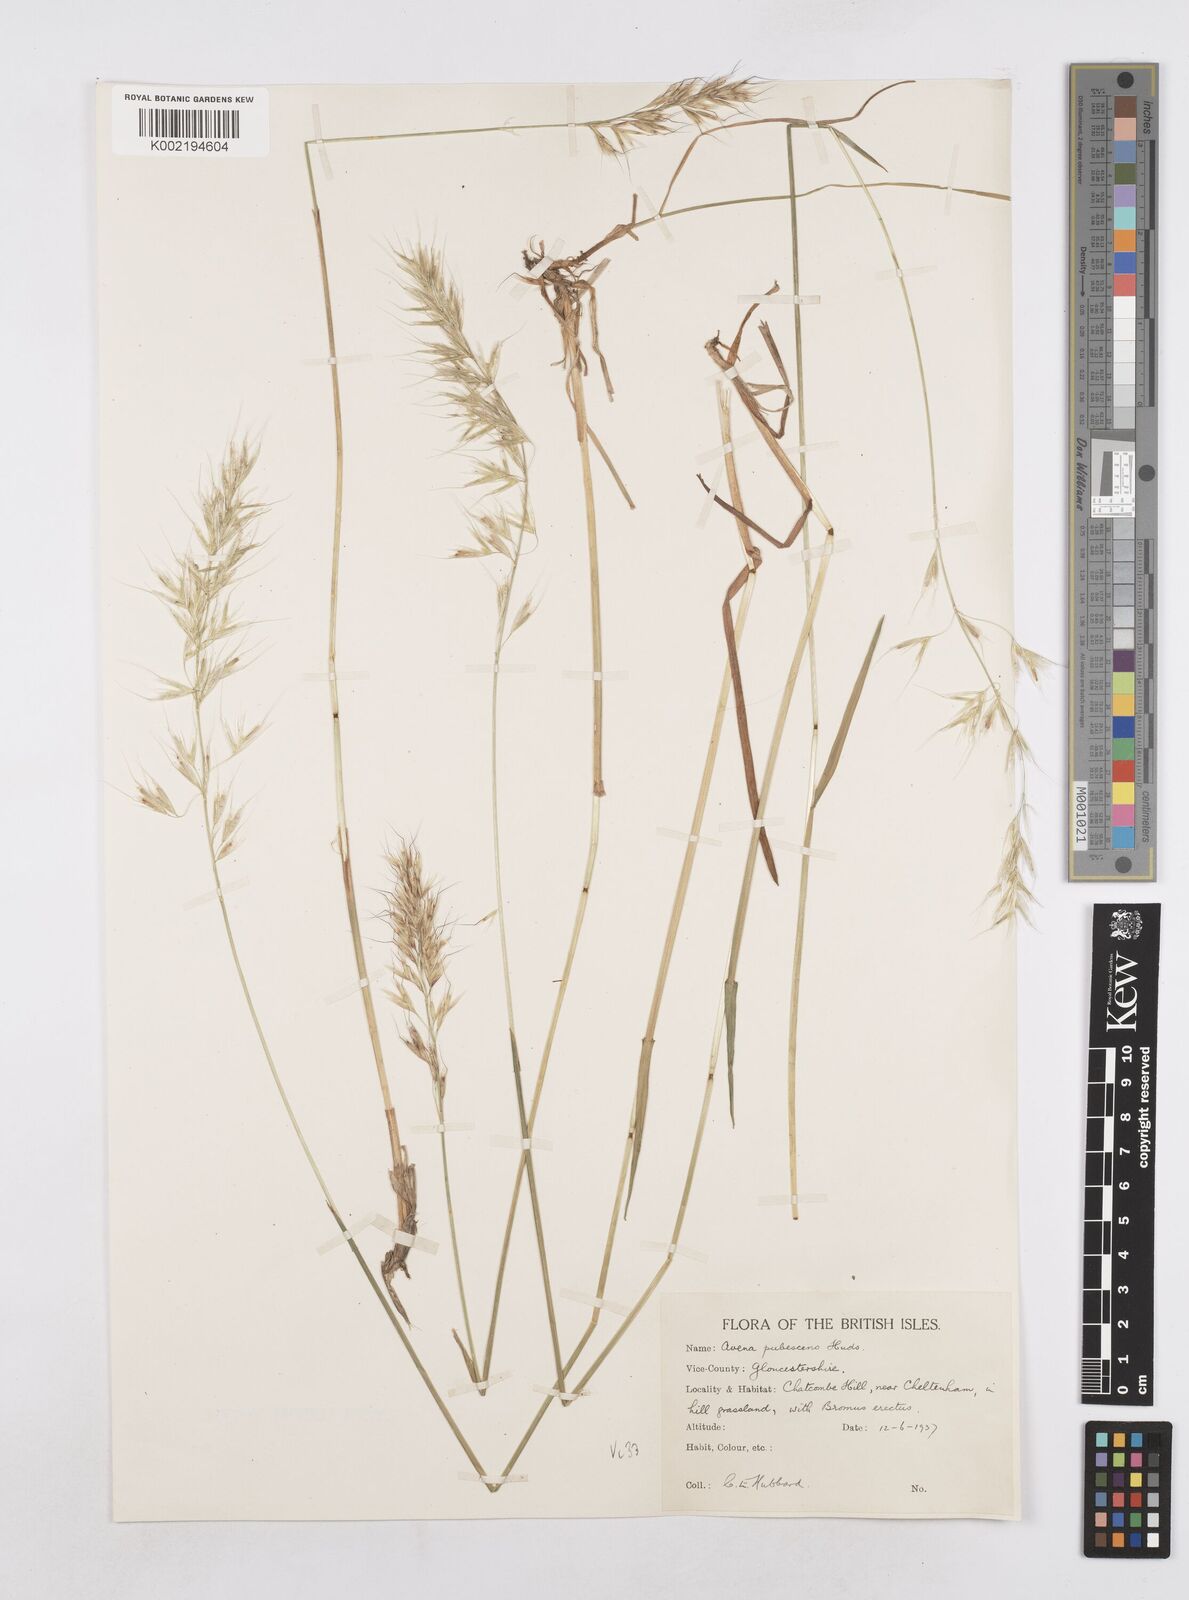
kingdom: Plantae
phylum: Tracheophyta
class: Liliopsida
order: Poales
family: Poaceae
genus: Avenula
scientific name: Avenula pubescens
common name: Downy alpine oatgrass
